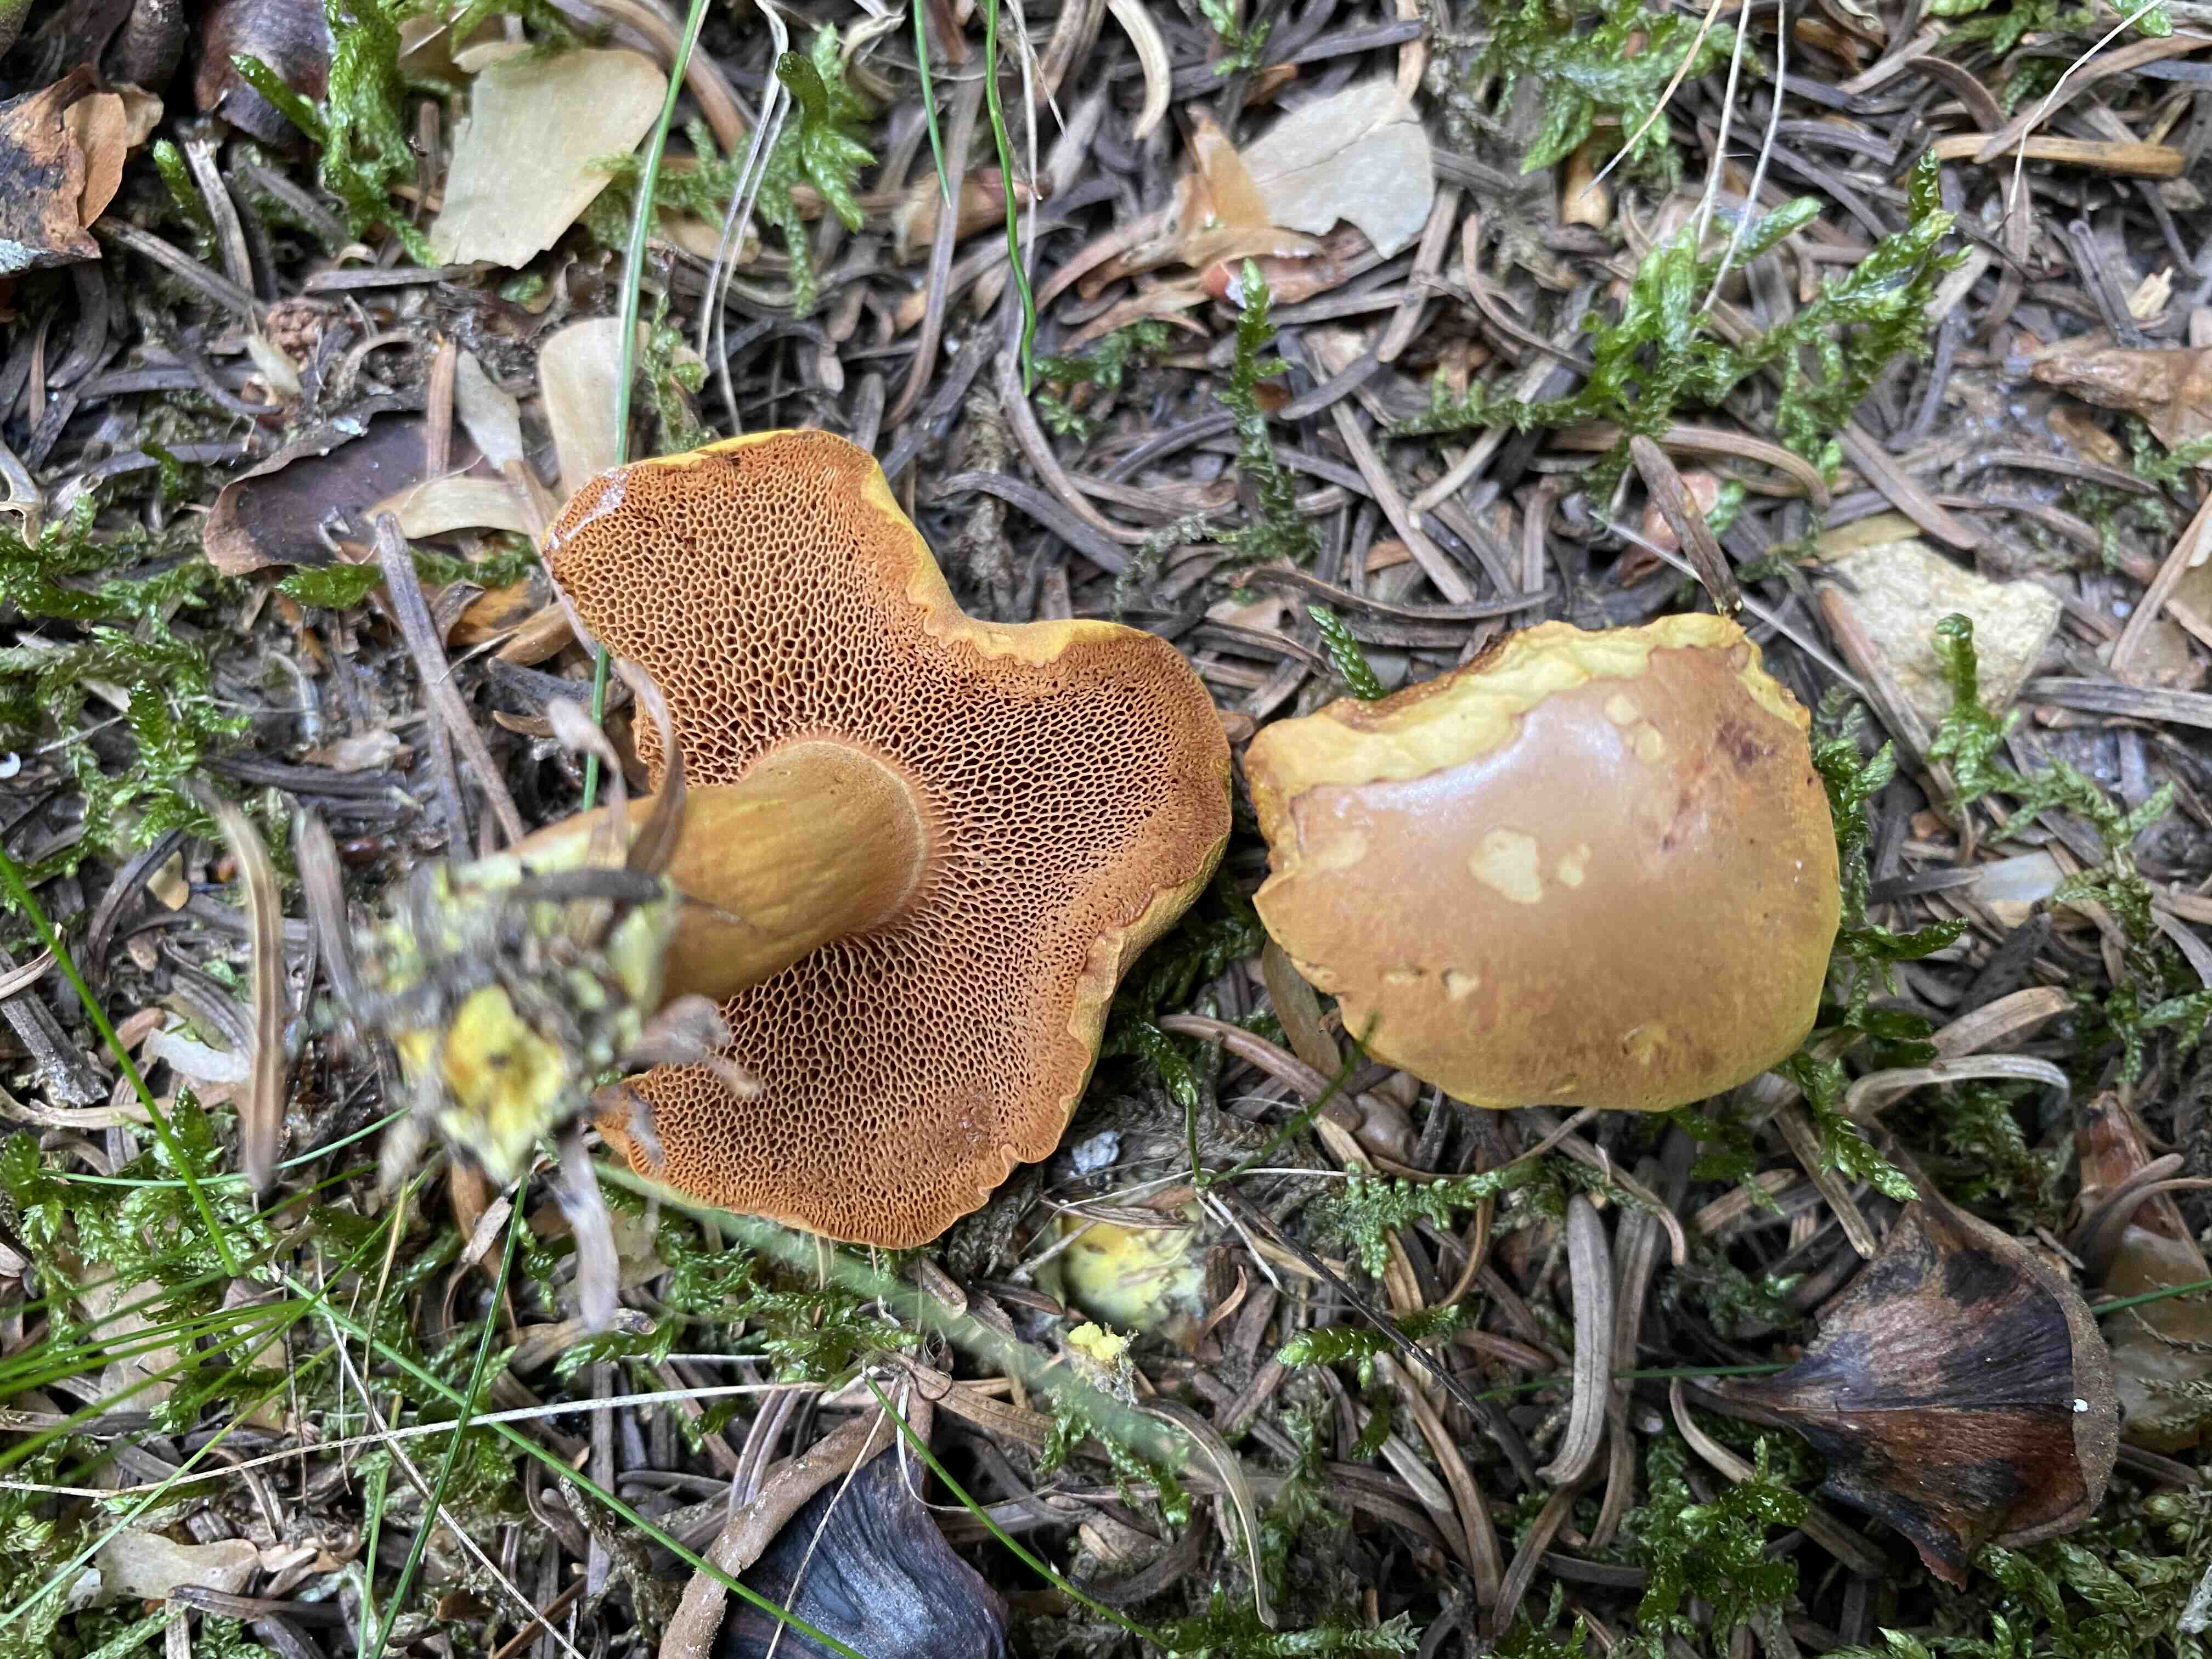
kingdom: Fungi
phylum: Basidiomycota
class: Agaricomycetes
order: Boletales
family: Boletaceae
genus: Chalciporus
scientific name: Chalciporus piperatus
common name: peberrørhat
